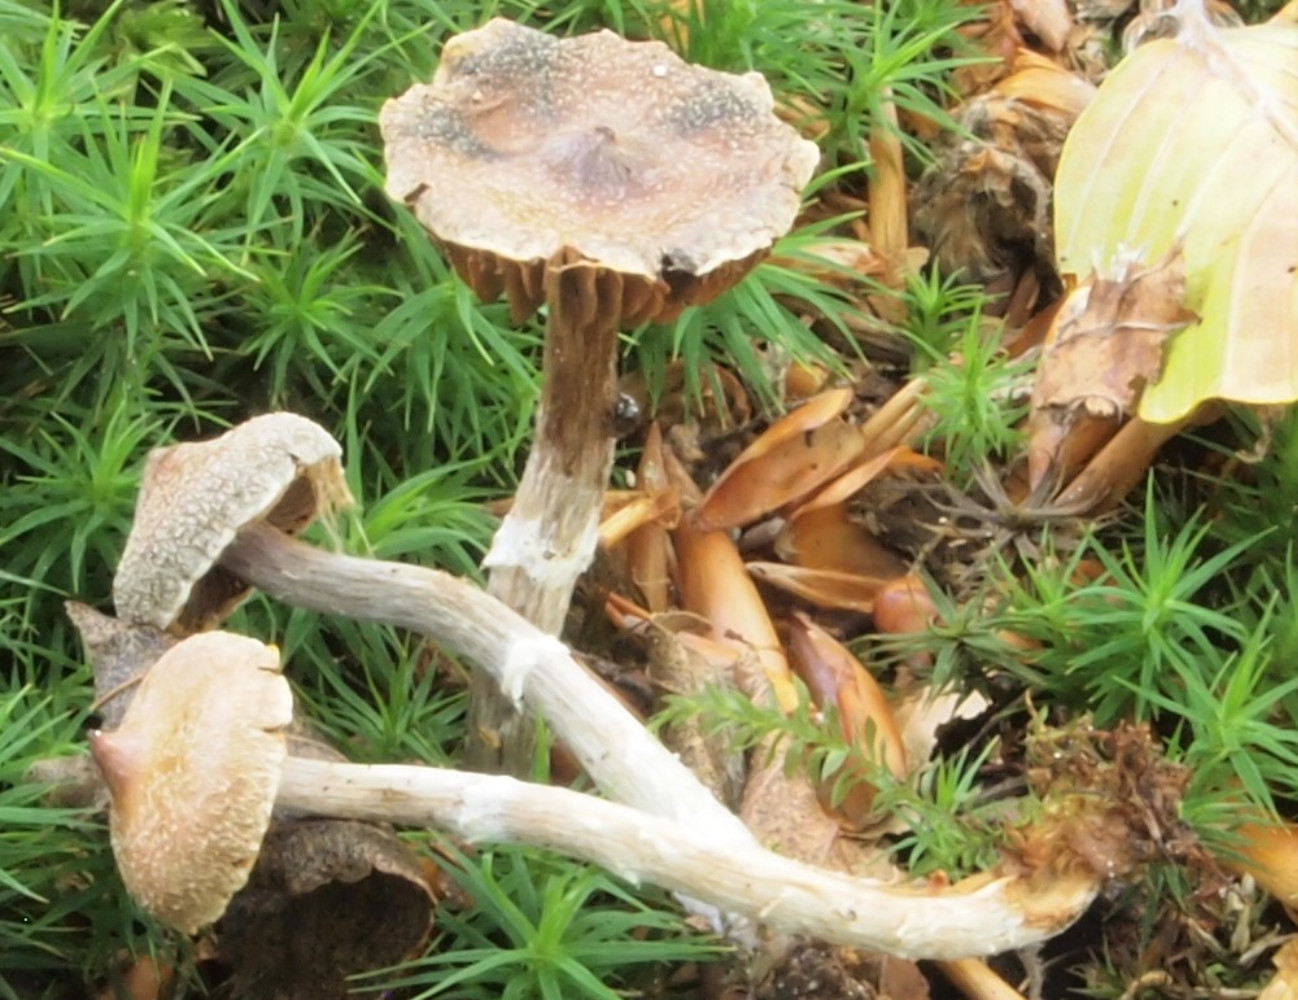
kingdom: Fungi
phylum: Basidiomycota
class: Agaricomycetes
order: Agaricales
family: Cortinariaceae
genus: Cortinarius
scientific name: Cortinarius
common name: pelargonie-slørhat
